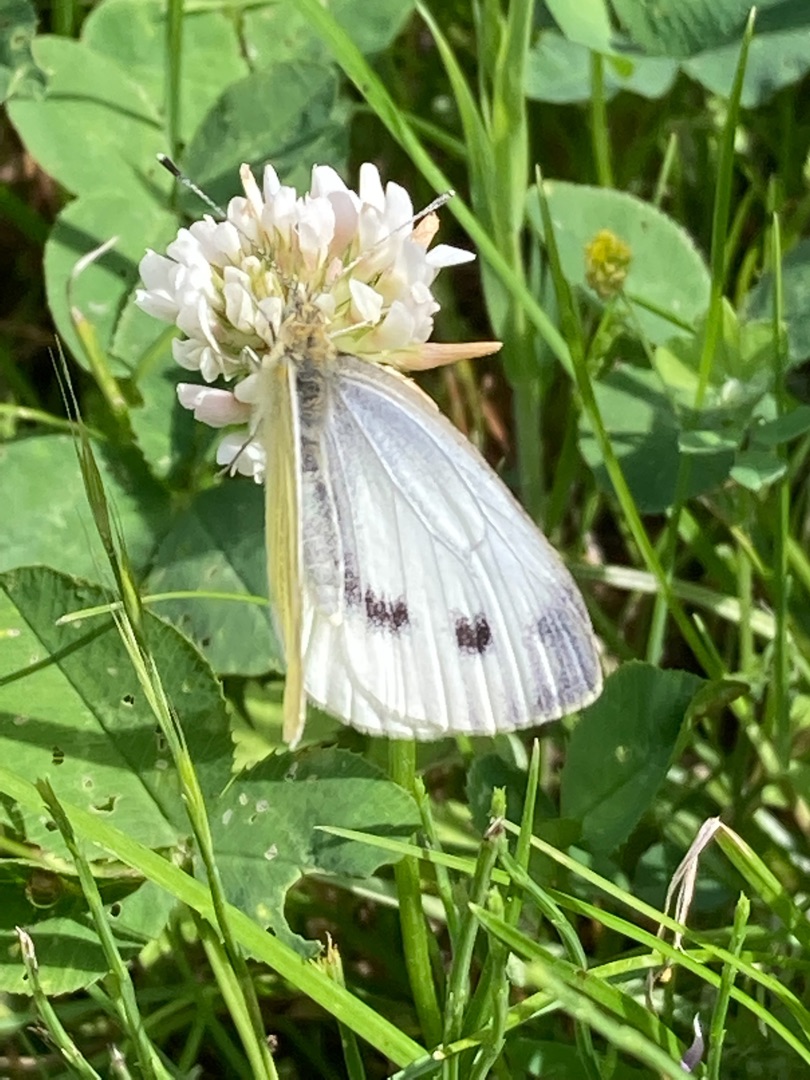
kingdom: Animalia
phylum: Arthropoda
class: Insecta
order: Lepidoptera
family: Pieridae
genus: Pieris
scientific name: Pieris napi
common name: Grønåret kålsommerfugl
